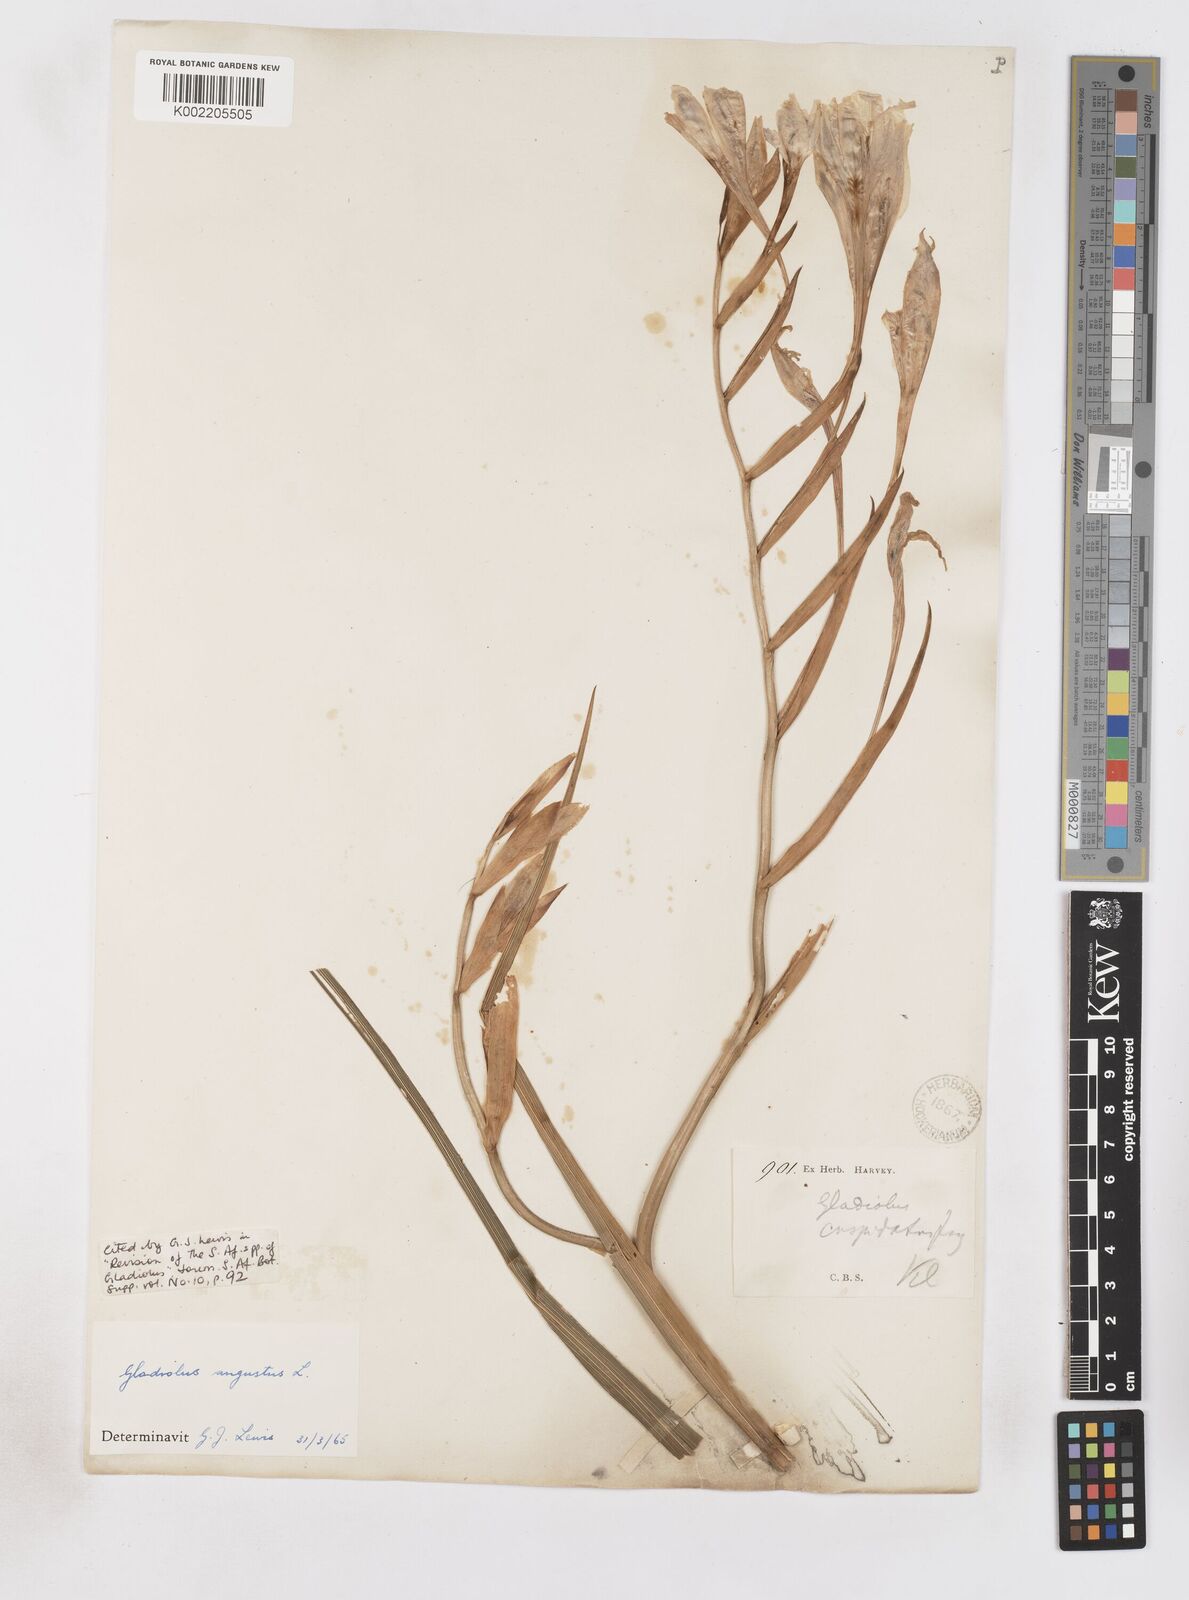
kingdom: Plantae
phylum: Tracheophyta
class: Liliopsida
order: Asparagales
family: Iridaceae
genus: Gladiolus
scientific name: Gladiolus angustus
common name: Painted-lady
